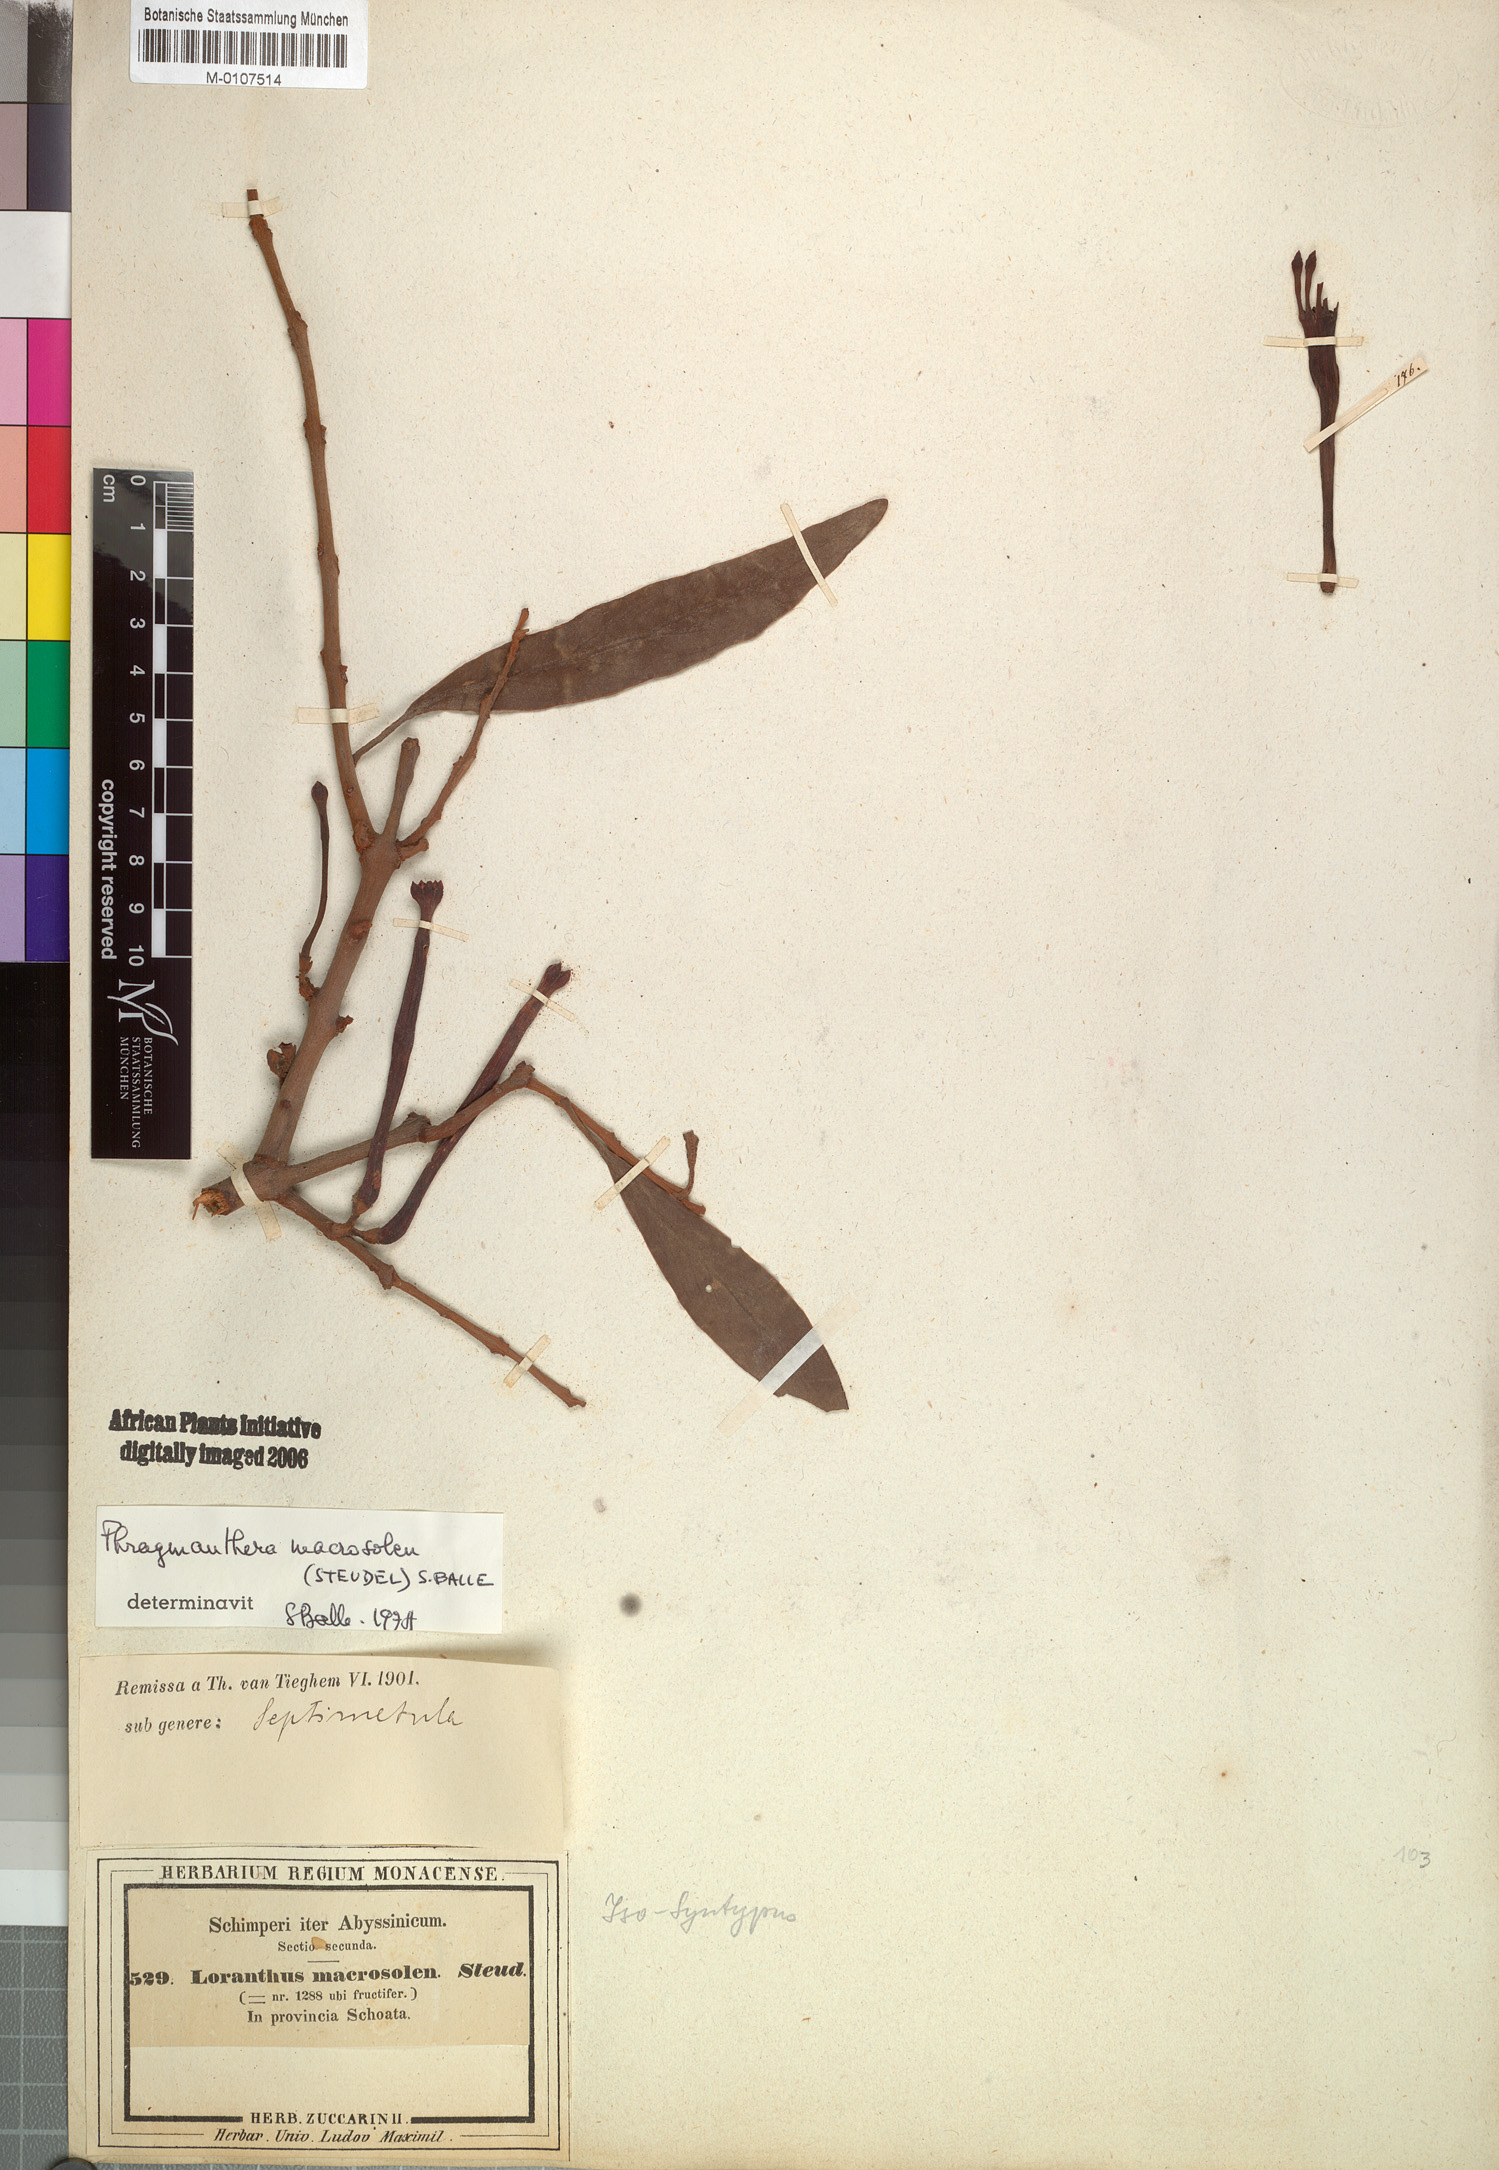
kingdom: Plantae
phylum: Tracheophyta
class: Magnoliopsida
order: Santalales
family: Loranthaceae
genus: Phragmanthera
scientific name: Phragmanthera macrosolen
